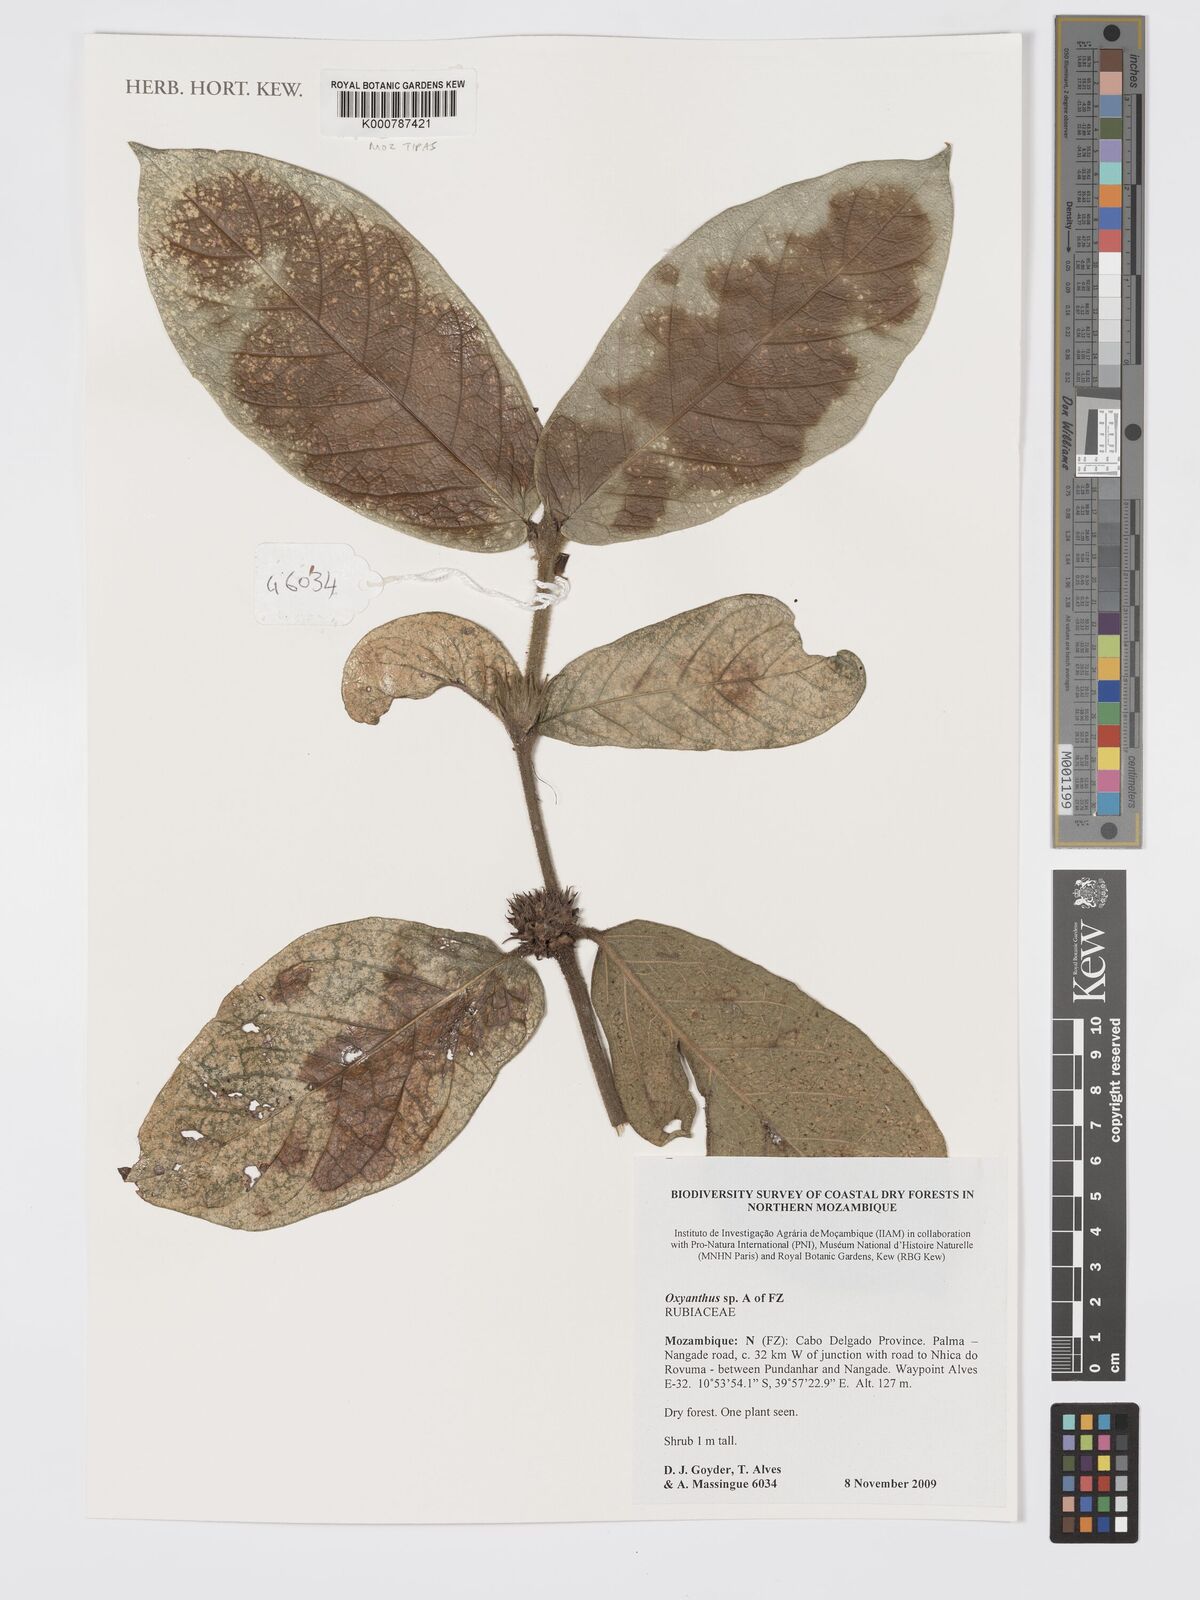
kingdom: Plantae
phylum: Tracheophyta
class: Magnoliopsida
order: Gentianales
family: Rubiaceae
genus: Oxyanthus
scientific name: Oxyanthus strigosus
